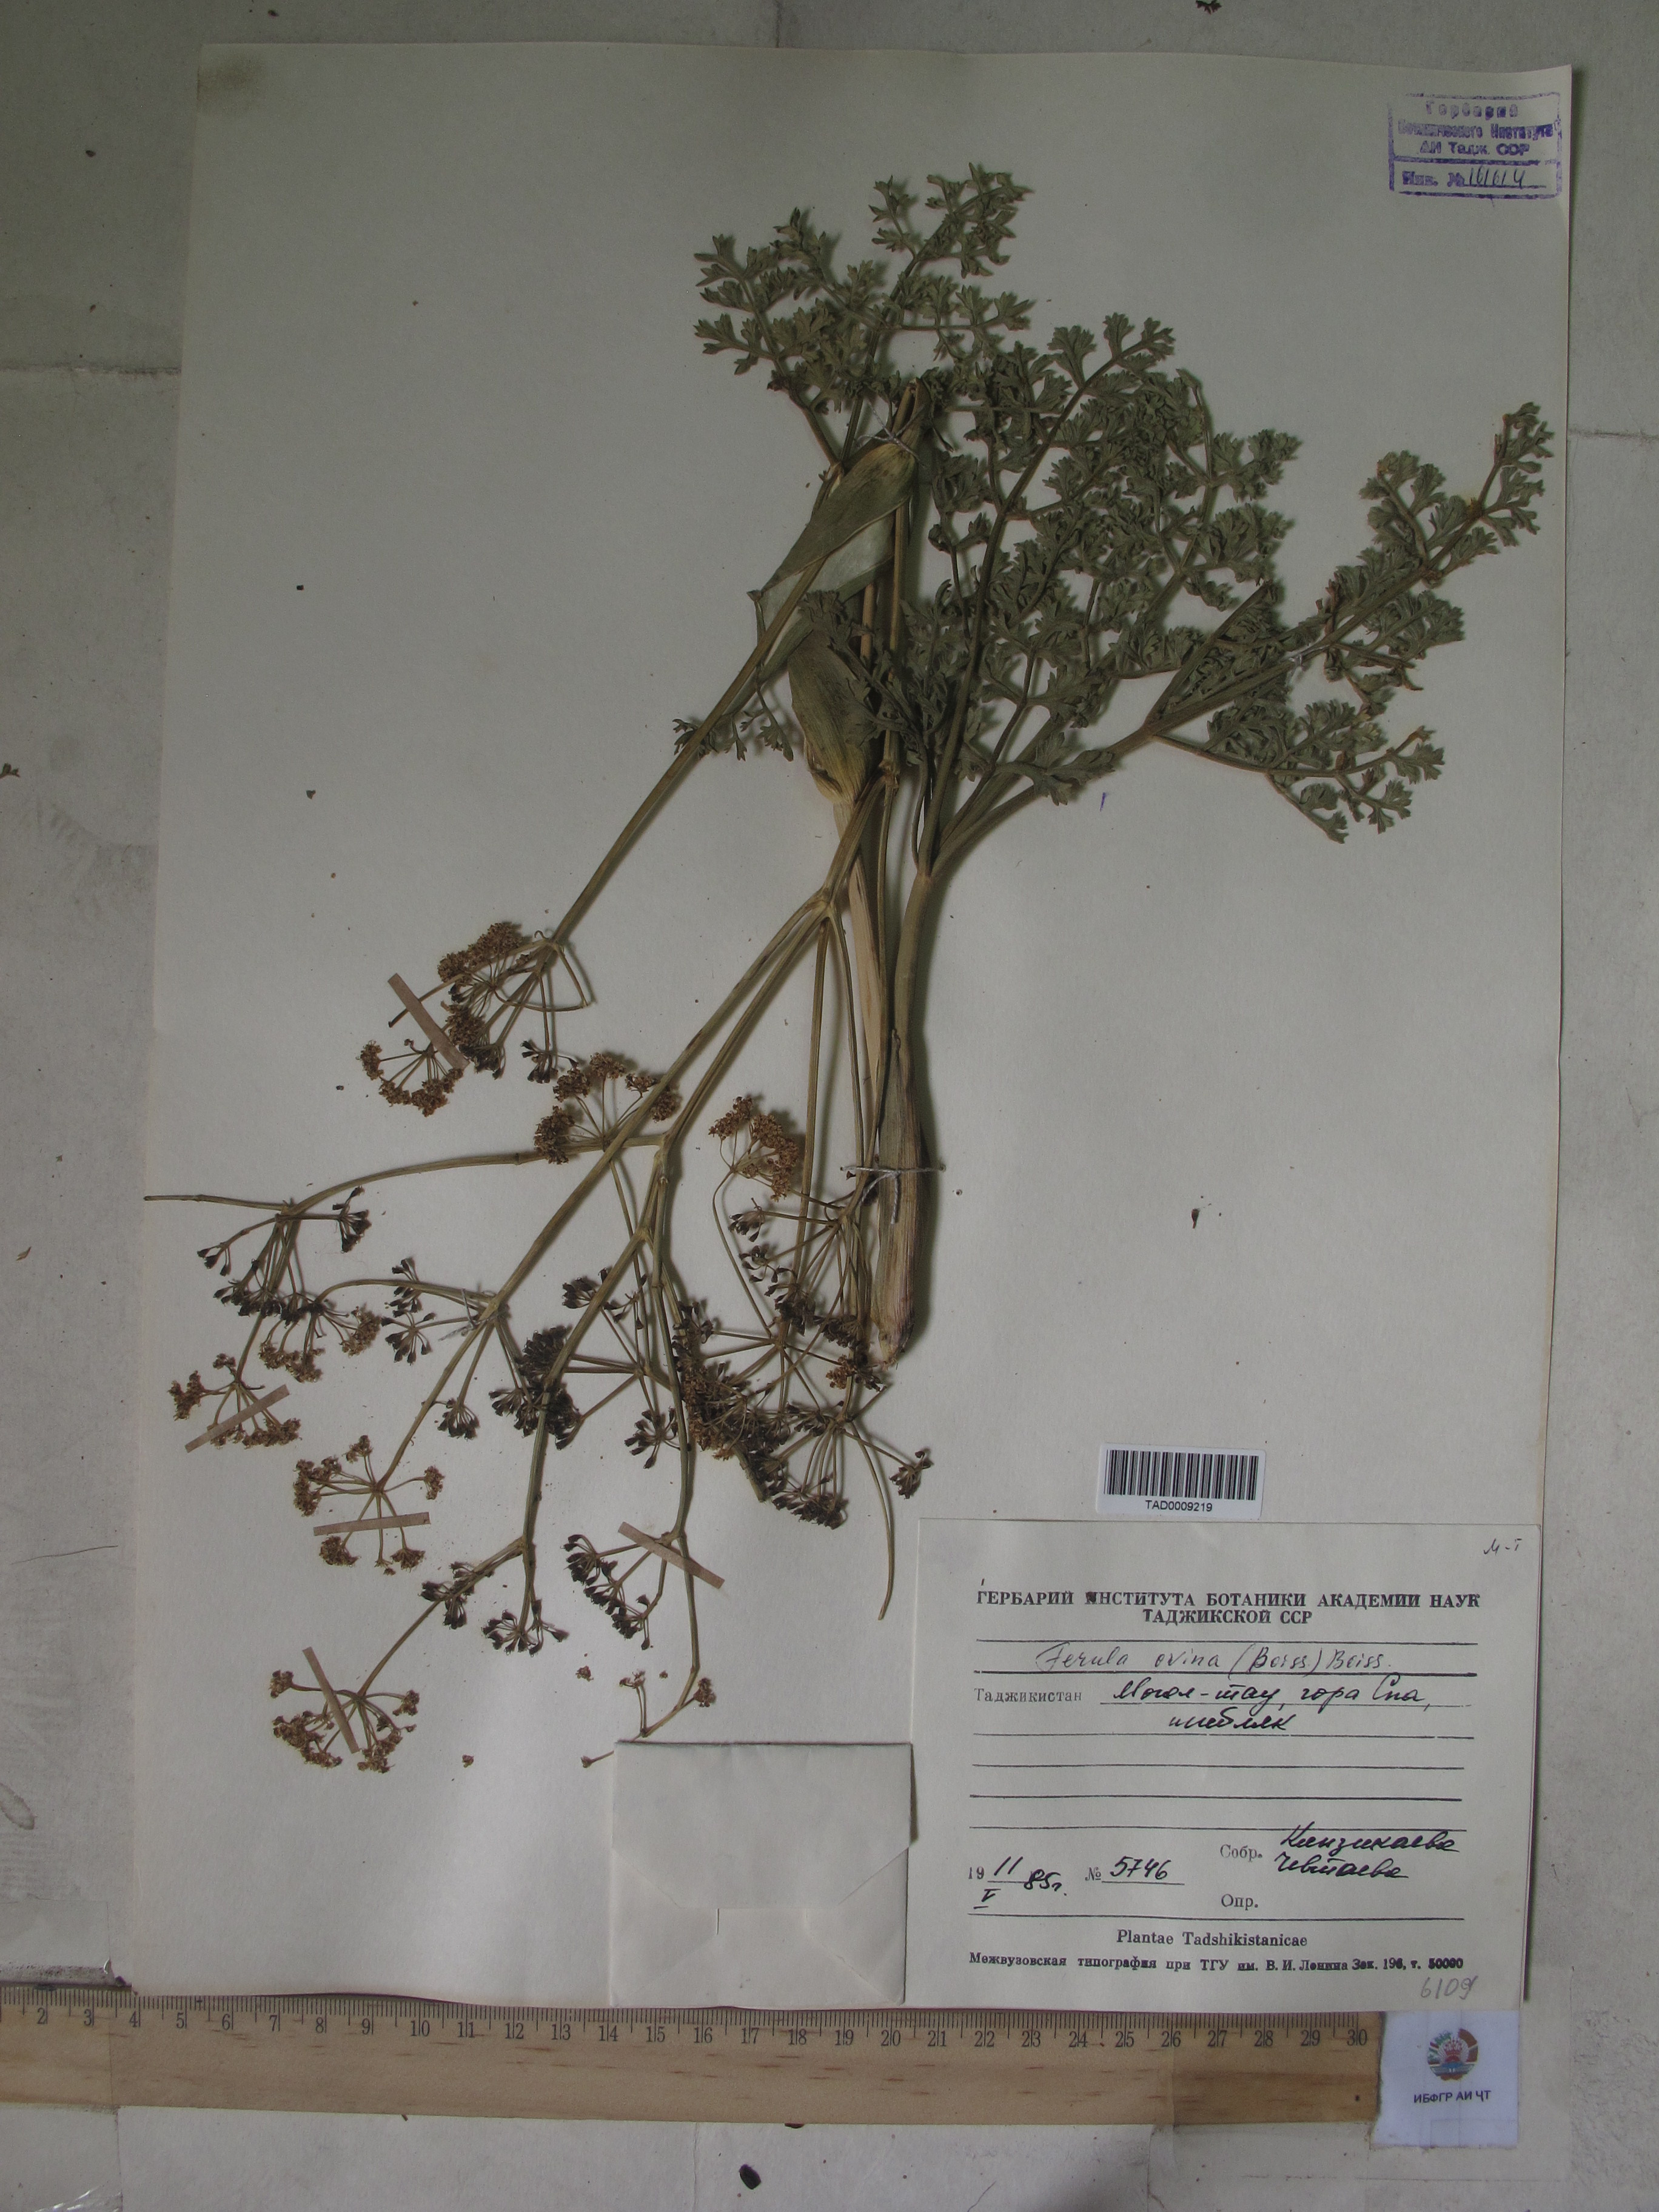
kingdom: Plantae
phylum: Tracheophyta
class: Magnoliopsida
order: Apiales
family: Apiaceae
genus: Ferula
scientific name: Ferula ovina
